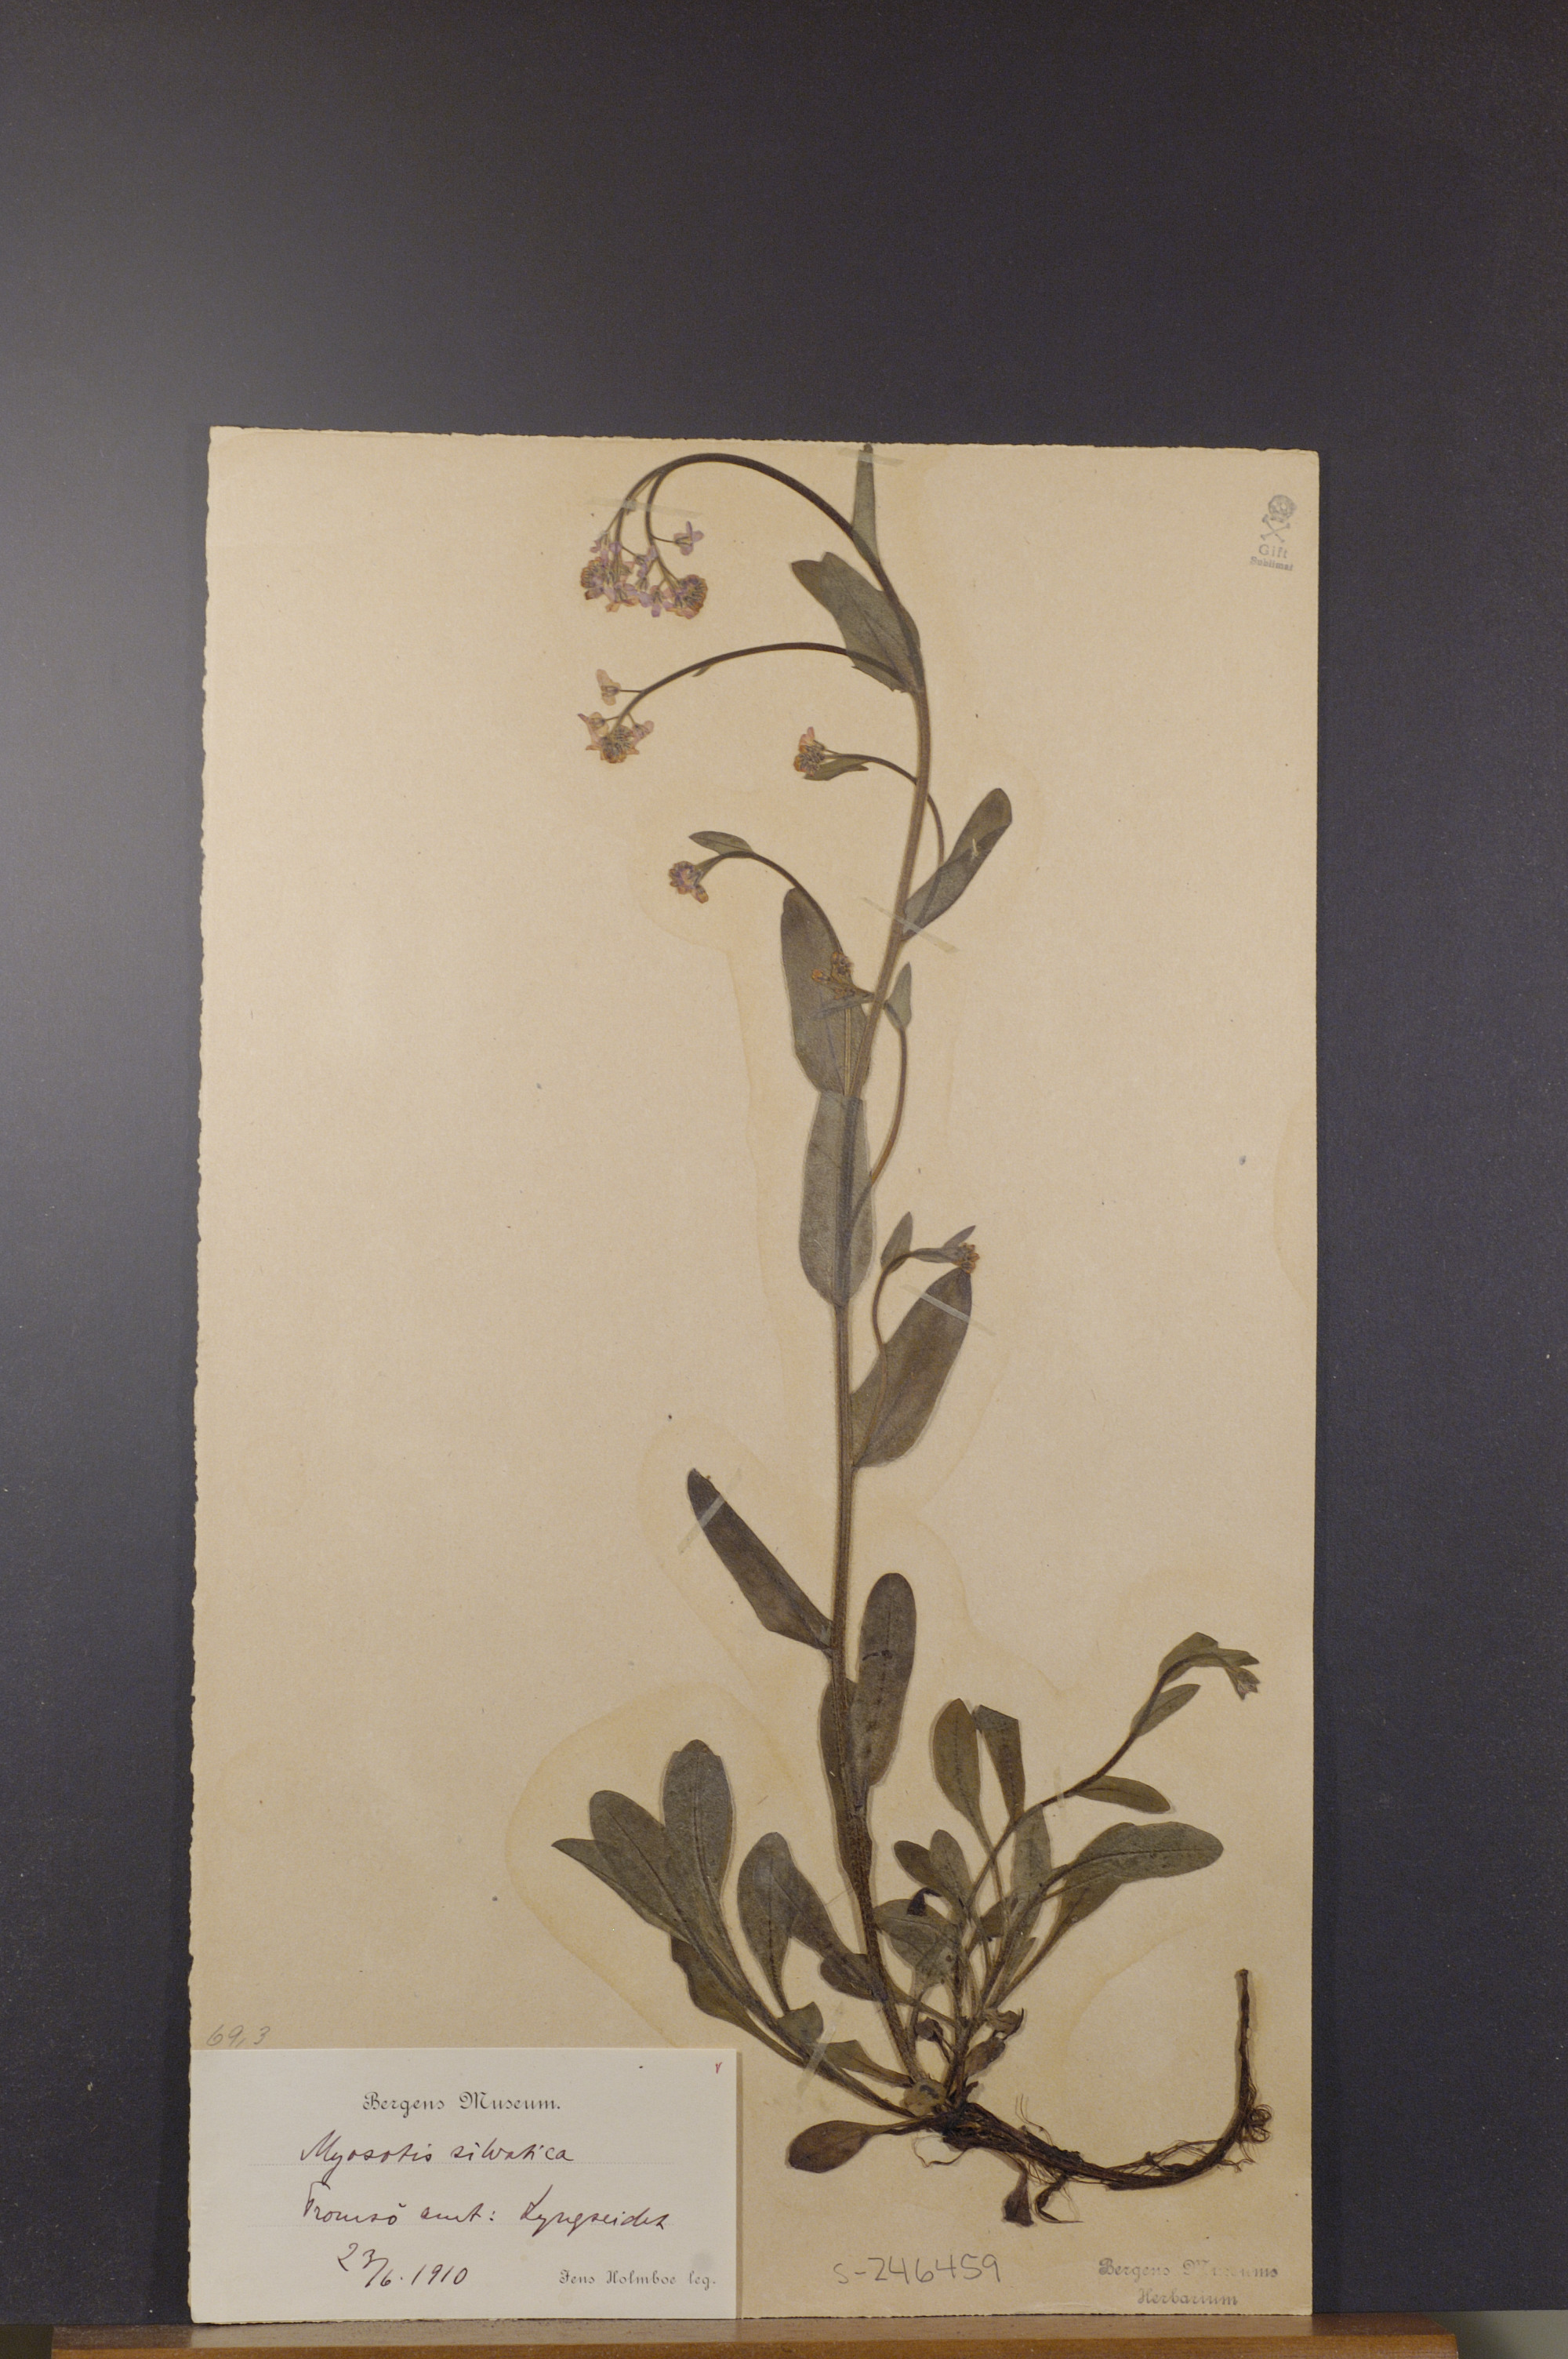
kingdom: Plantae
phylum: Tracheophyta
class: Magnoliopsida
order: Boraginales
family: Boraginaceae
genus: Myosotis
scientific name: Myosotis decumbens
